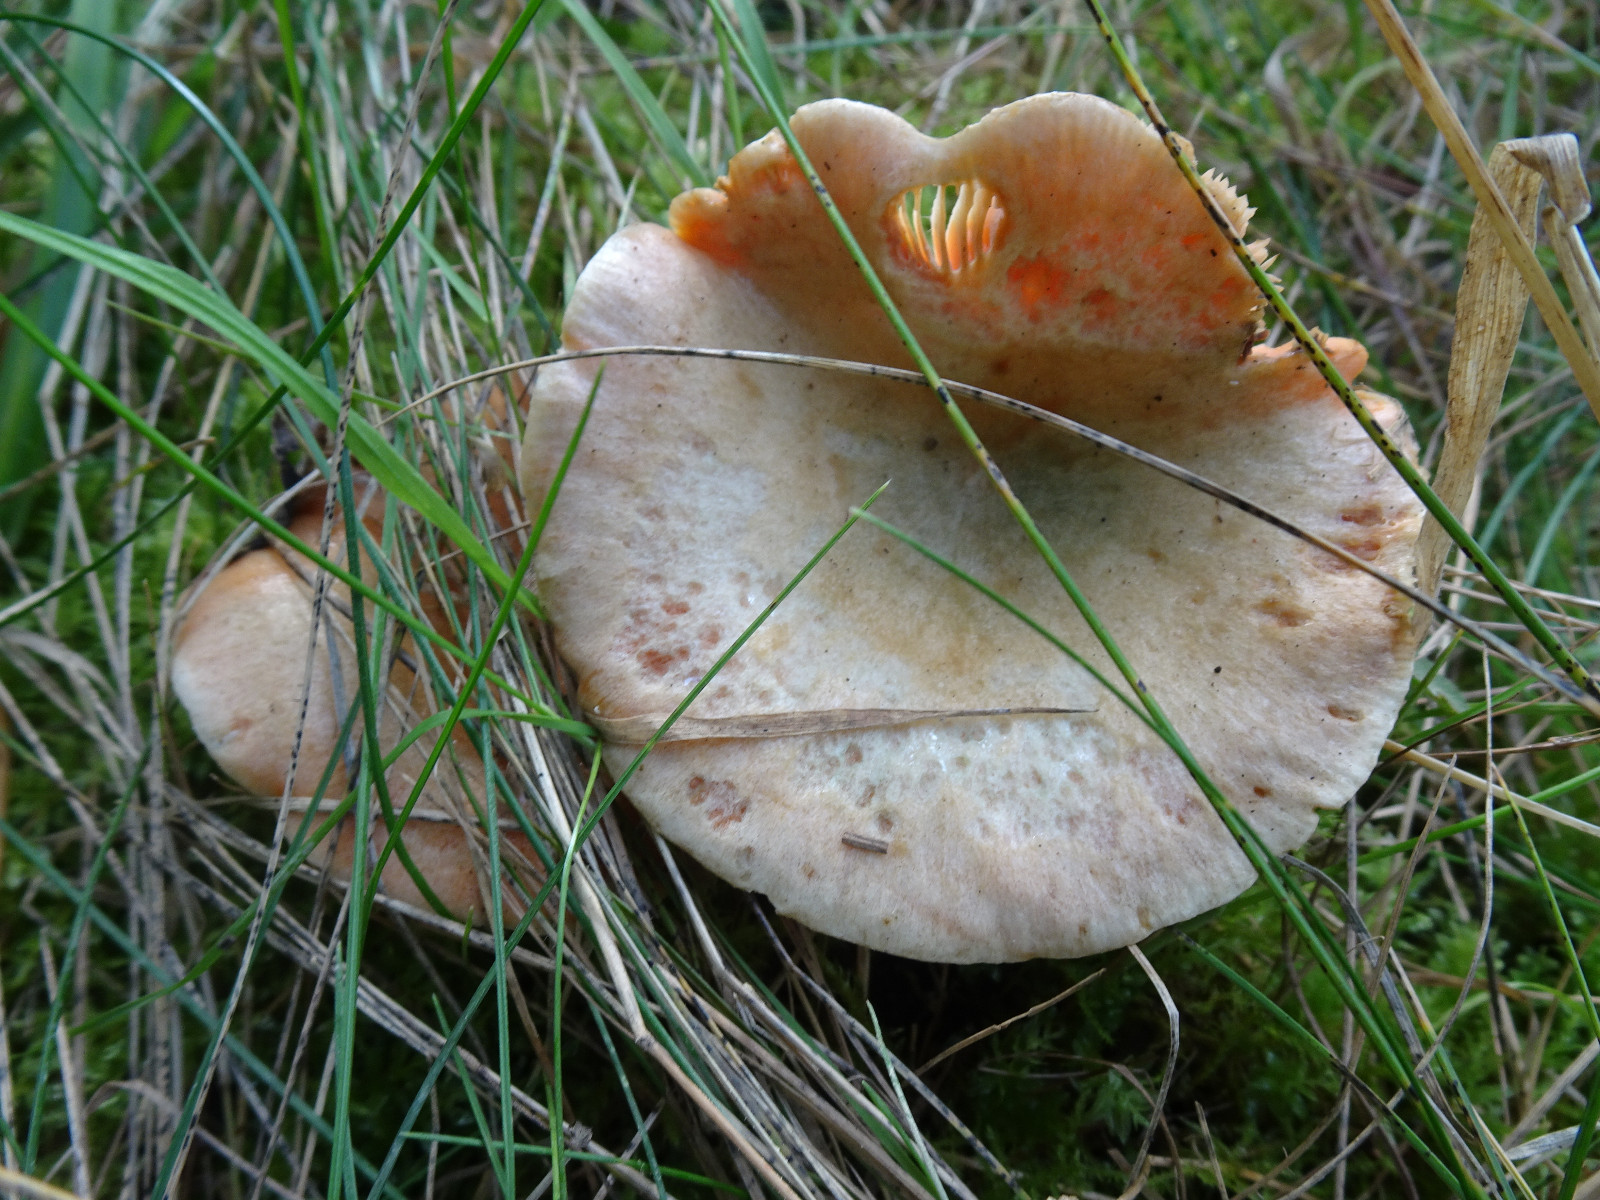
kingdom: Fungi
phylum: Basidiomycota
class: Agaricomycetes
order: Russulales
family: Russulaceae
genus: Lactarius
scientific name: Lactarius deterrimus
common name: gran-mælkehat
